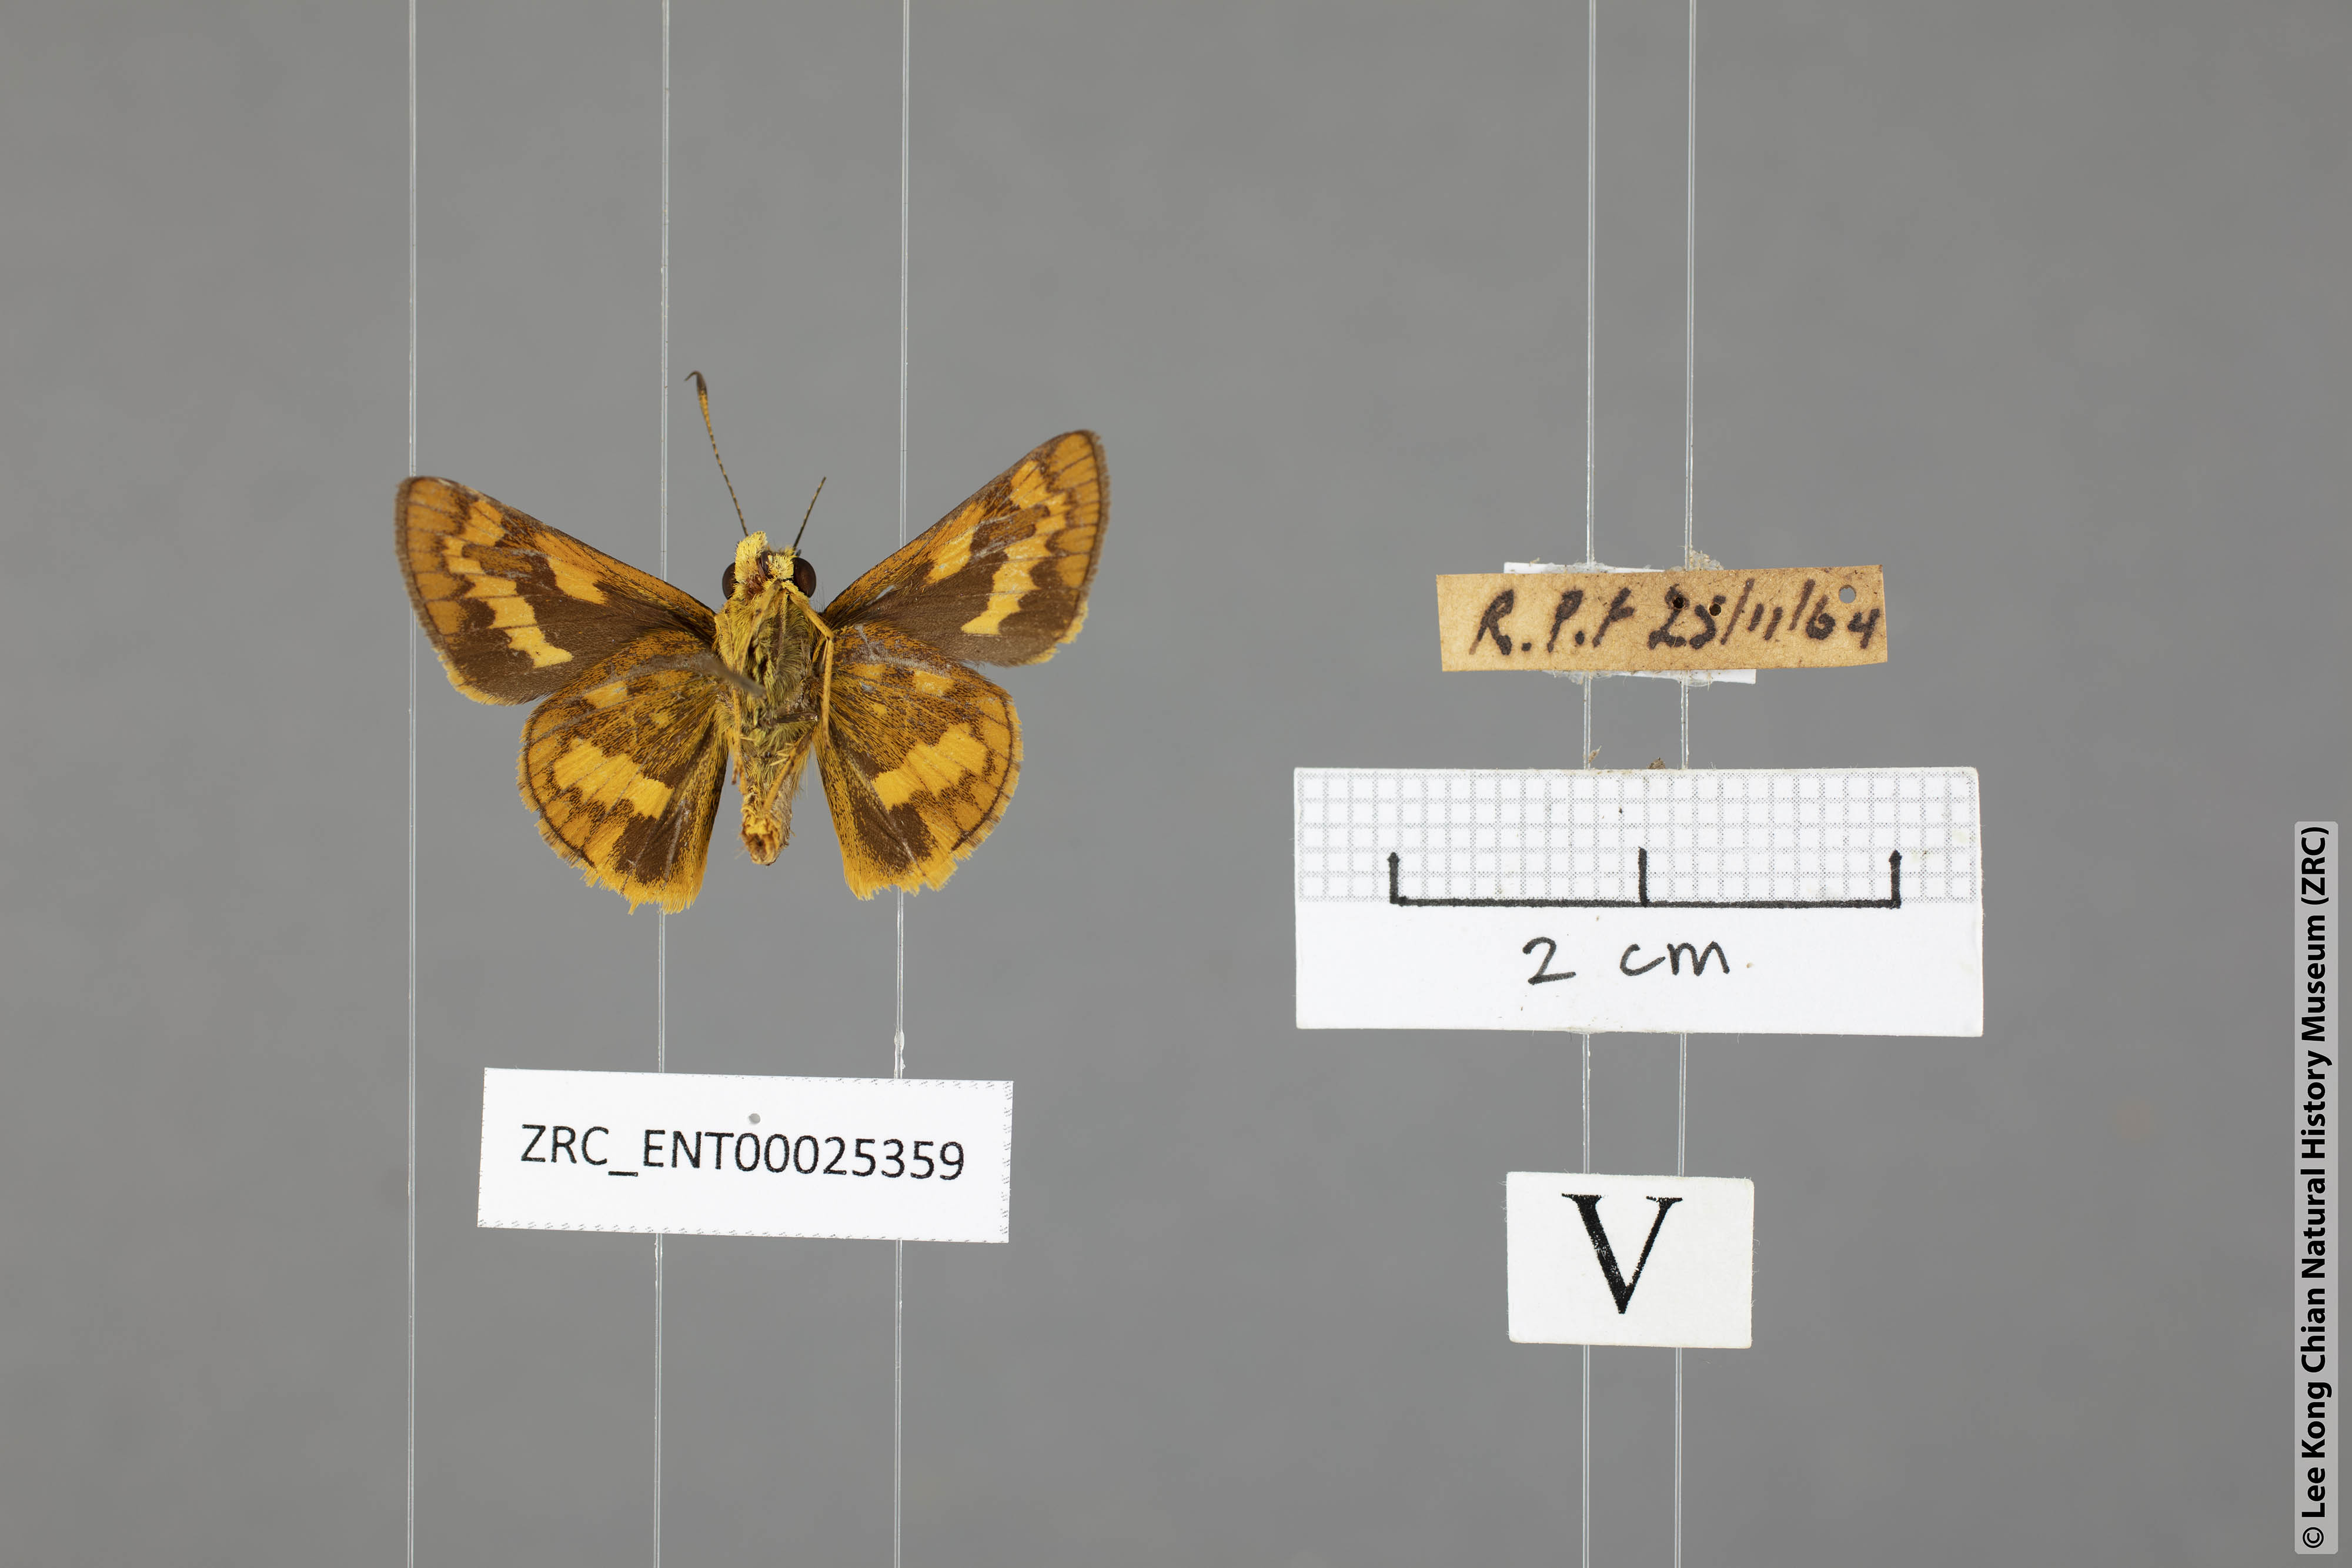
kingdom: Animalia
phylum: Arthropoda
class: Insecta
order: Lepidoptera
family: Hesperiidae
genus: Potanthus
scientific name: Potanthus
